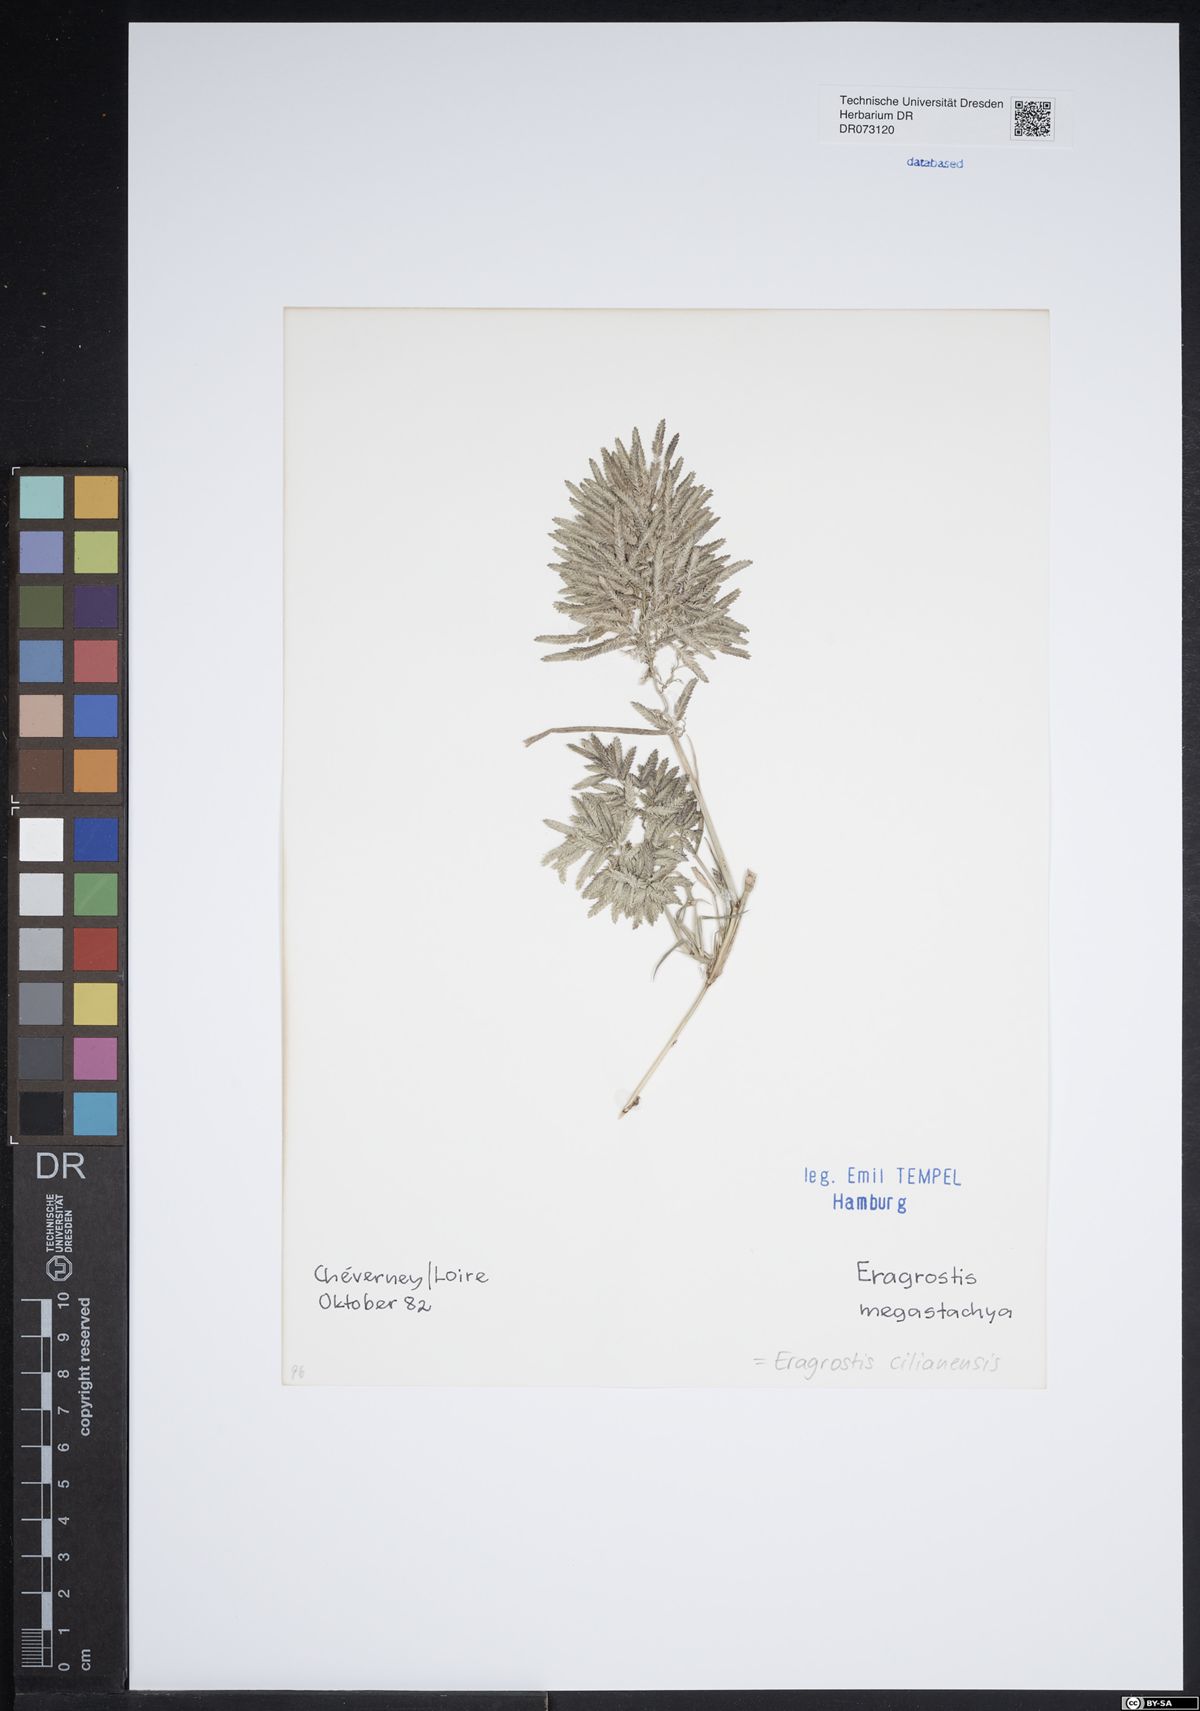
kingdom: Plantae
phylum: Tracheophyta
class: Liliopsida
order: Poales
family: Poaceae
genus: Eragrostis
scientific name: Eragrostis cilianensis
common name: Stinkgrass
